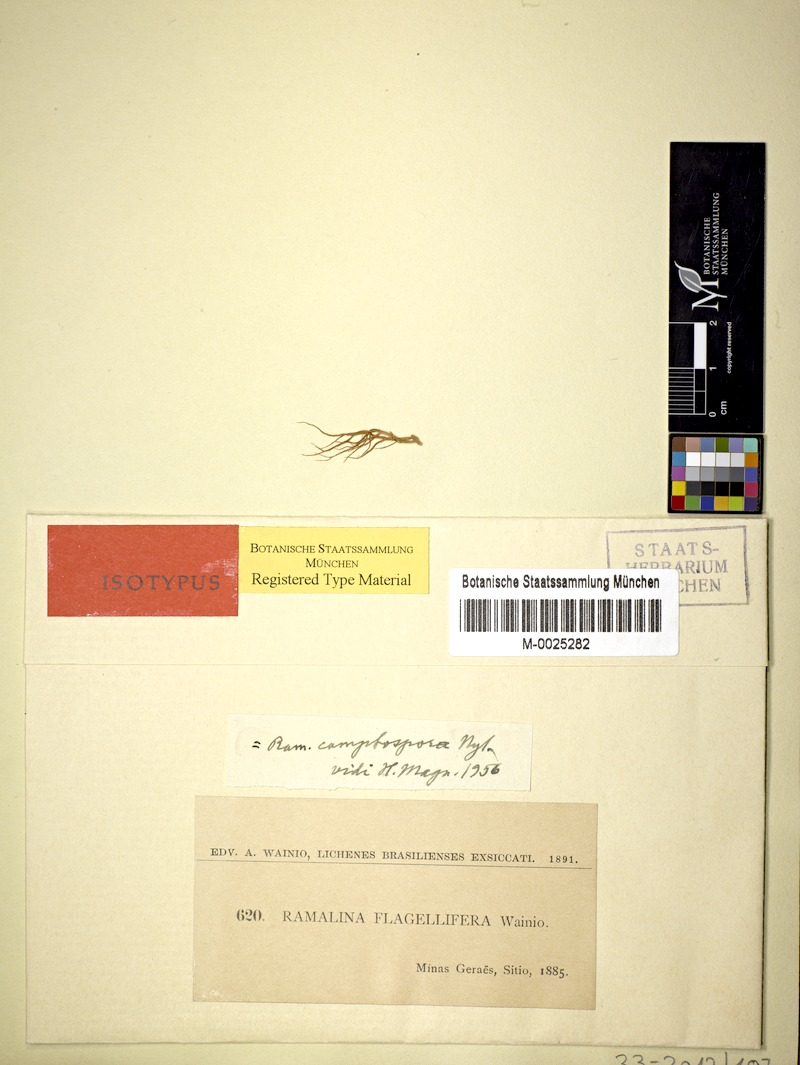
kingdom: Fungi
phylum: Ascomycota
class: Lecanoromycetes
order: Lecanorales
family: Ramalinaceae
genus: Ramalina
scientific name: Ramalina camptospora
